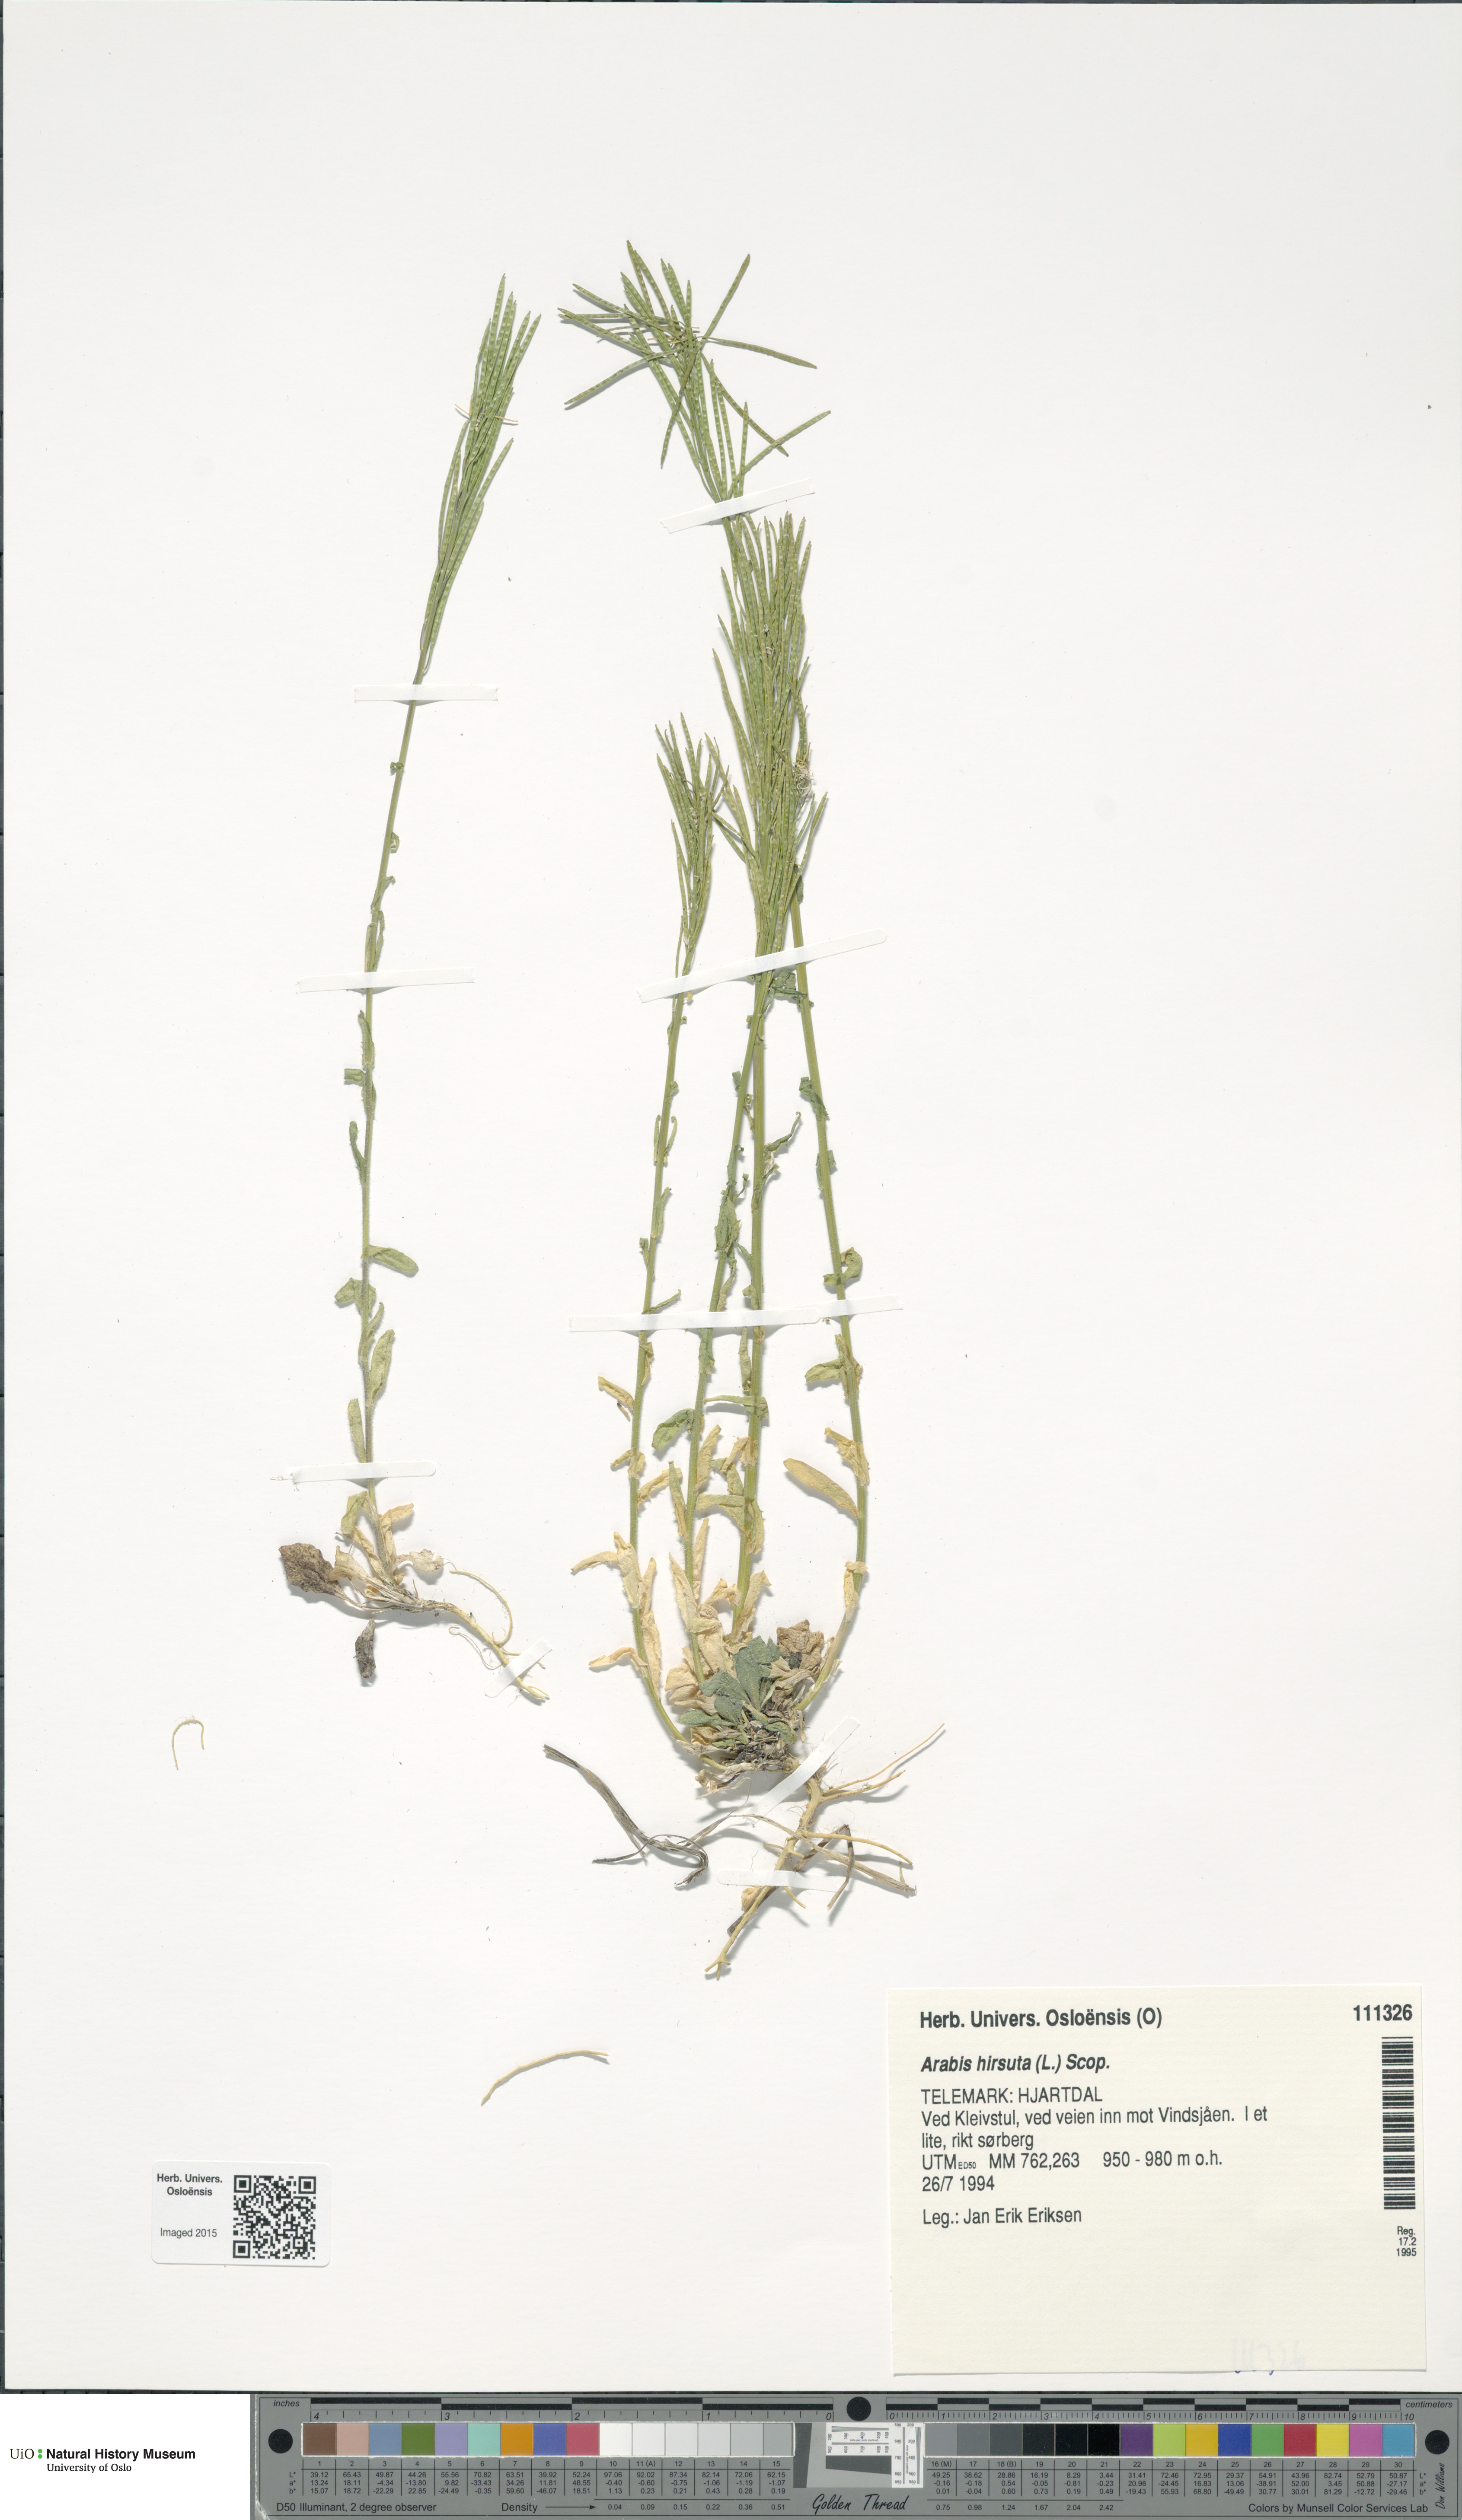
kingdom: Plantae
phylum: Tracheophyta
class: Magnoliopsida
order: Brassicales
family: Brassicaceae
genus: Arabis
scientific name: Arabis hirsuta
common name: Hairy rock-cress
